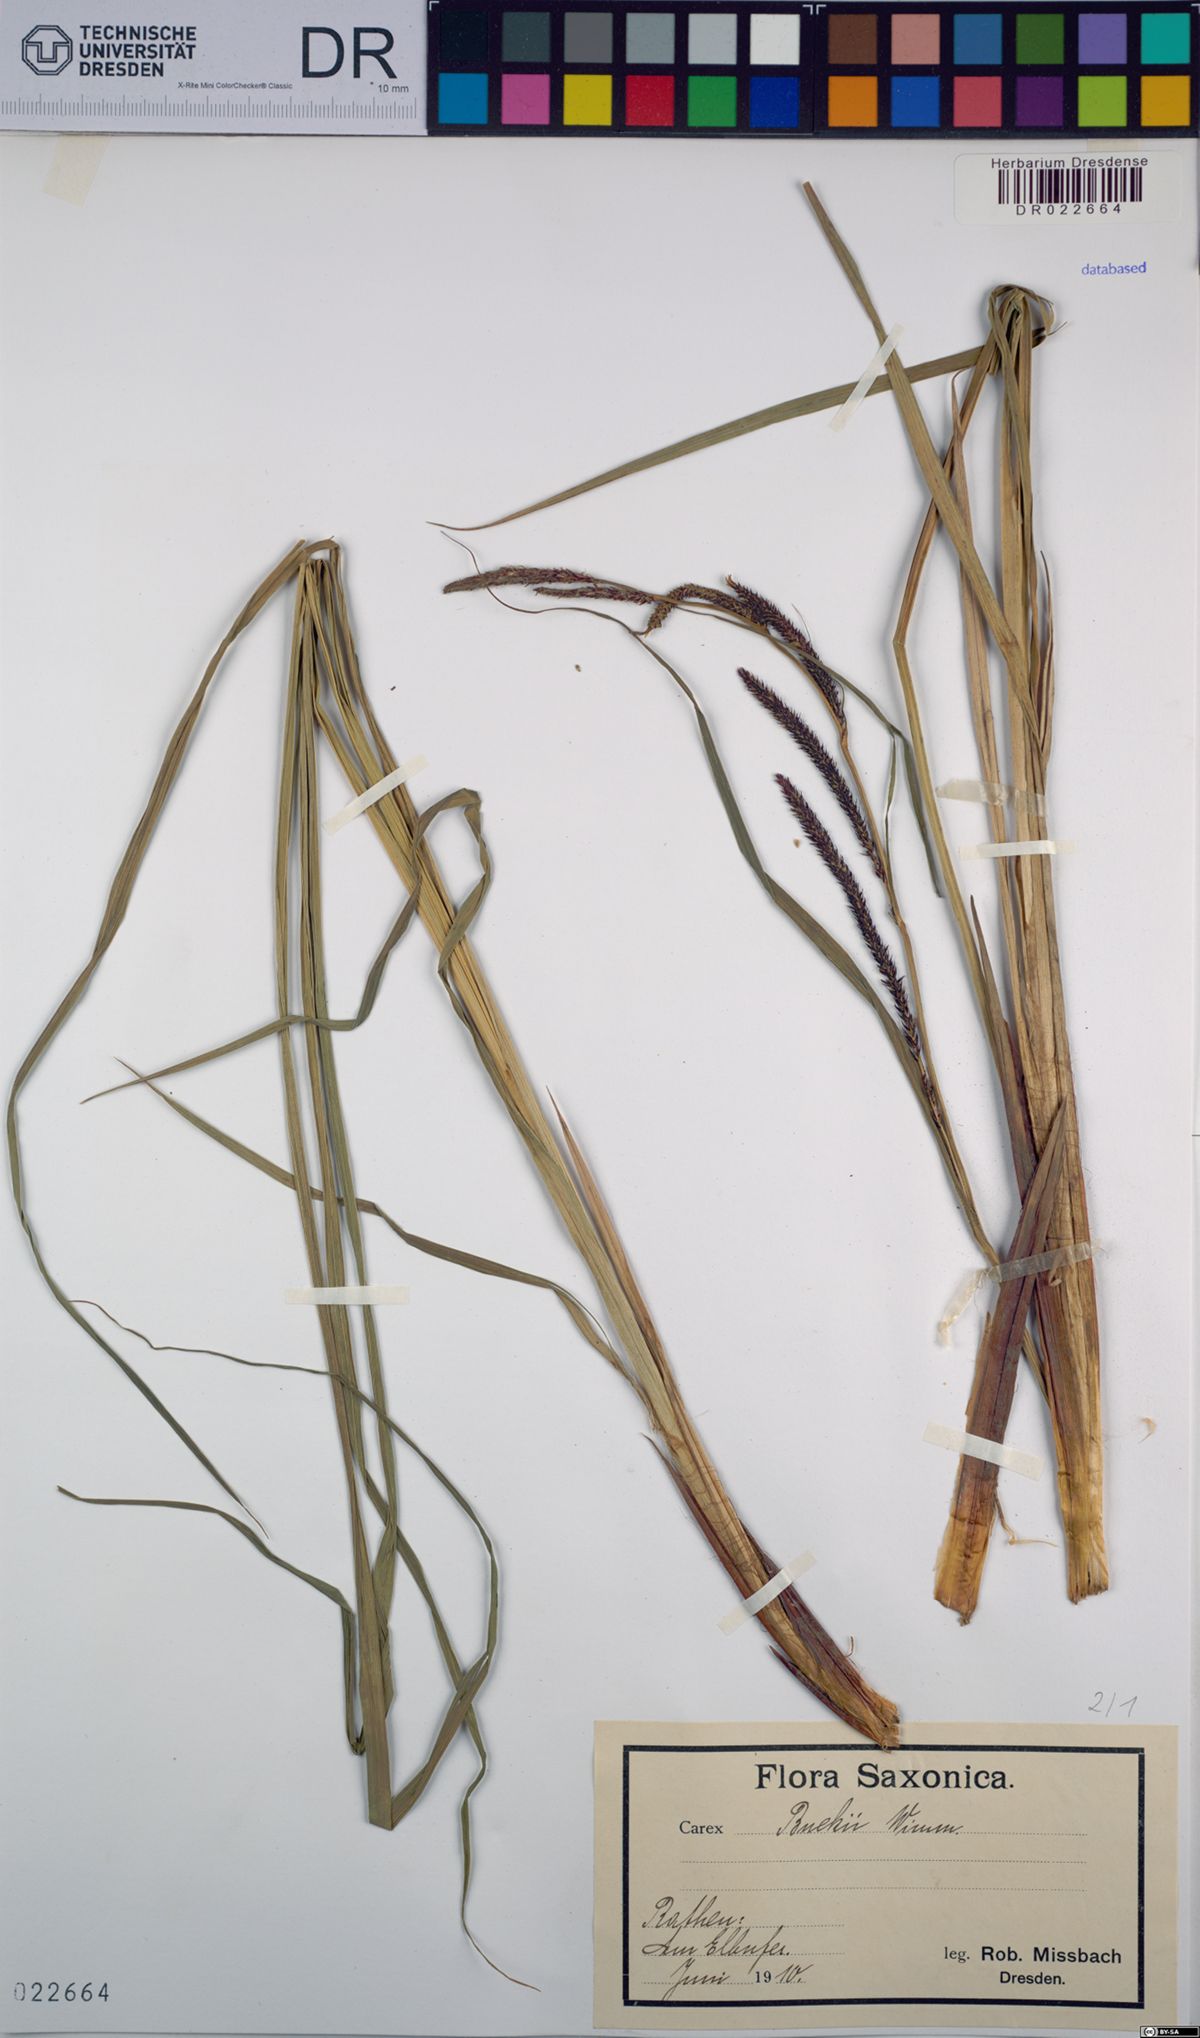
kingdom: Plantae
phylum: Tracheophyta
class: Liliopsida
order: Poales
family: Cyperaceae
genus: Carex
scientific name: Carex buekii
